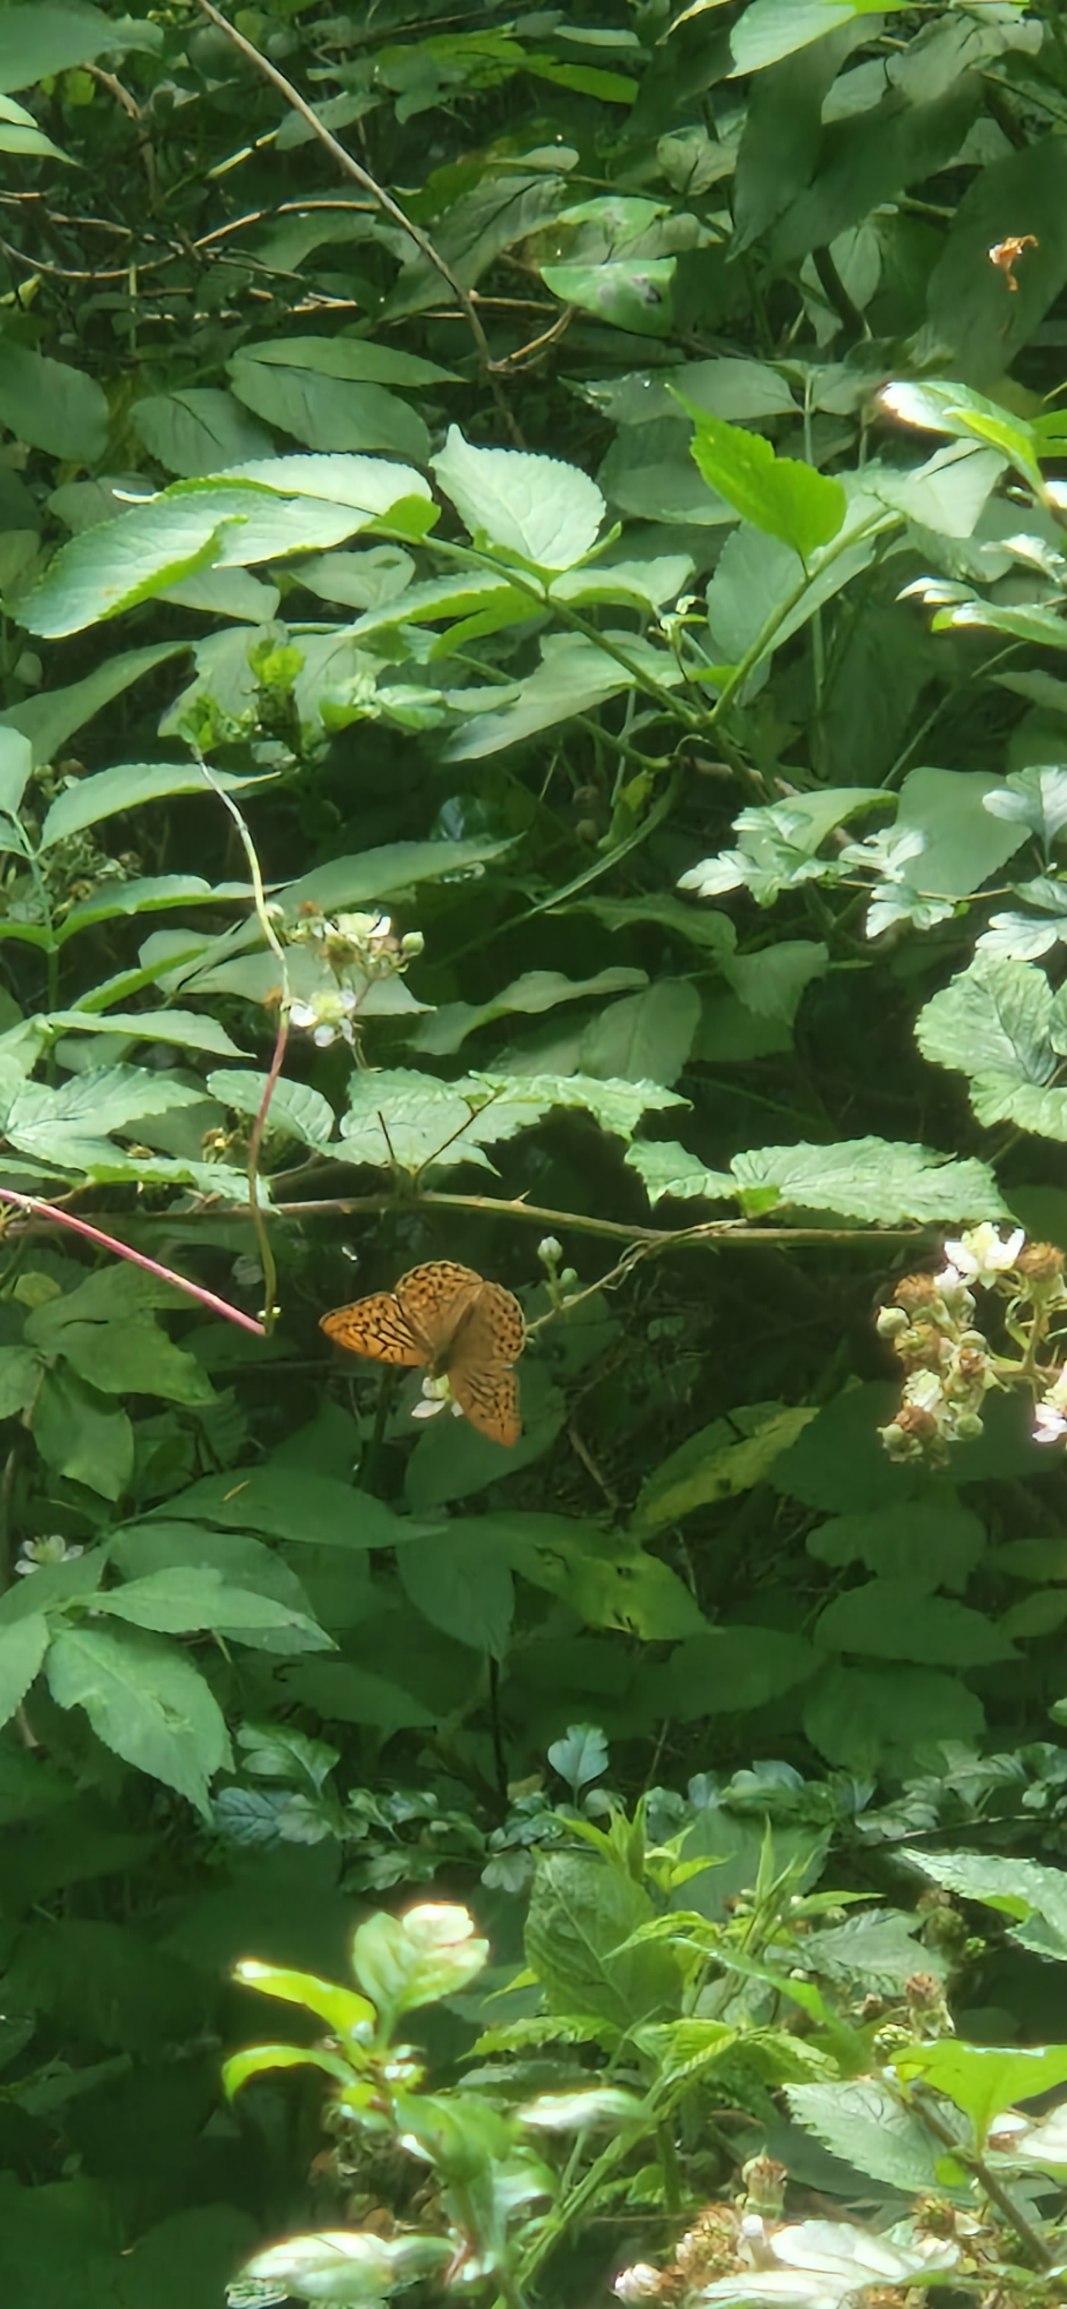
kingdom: Animalia
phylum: Arthropoda
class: Insecta
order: Lepidoptera
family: Nymphalidae
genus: Argynnis
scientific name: Argynnis paphia
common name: Kejserkåbe
